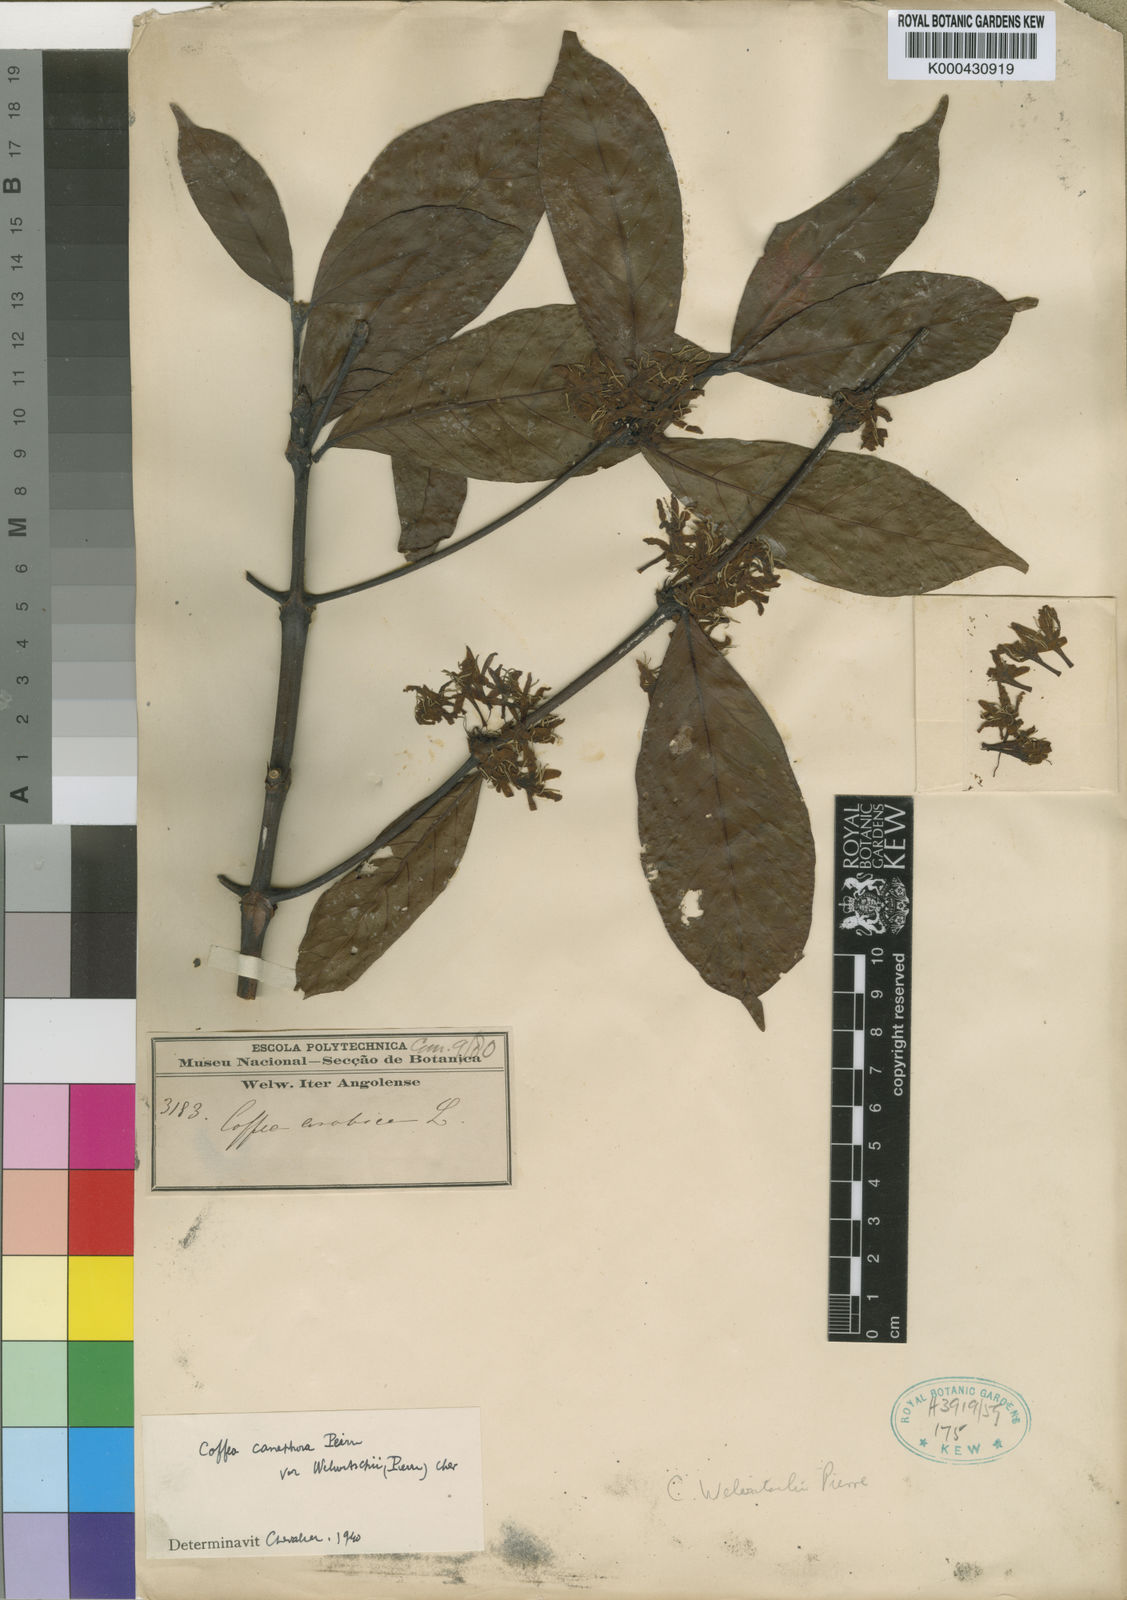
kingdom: Plantae
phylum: Tracheophyta
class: Magnoliopsida
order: Gentianales
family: Rubiaceae
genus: Coffea
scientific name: Coffea canephora
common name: Robusta coffee
